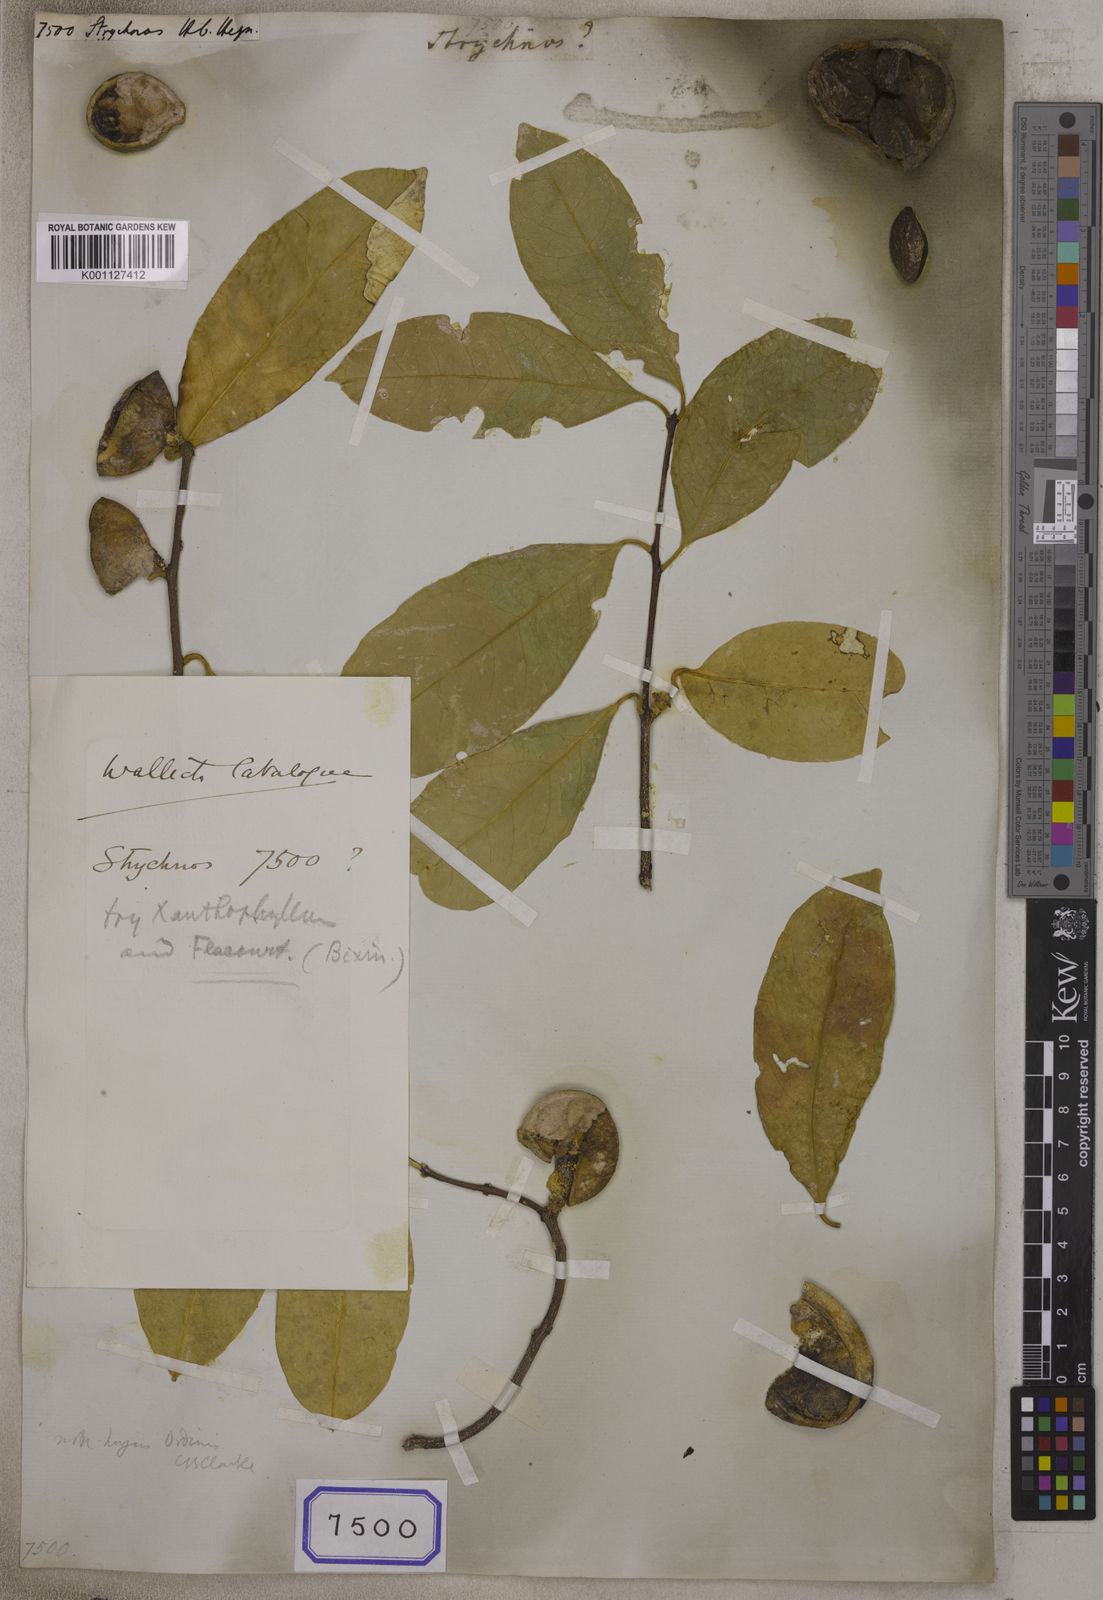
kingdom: Plantae
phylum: Tracheophyta
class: Magnoliopsida
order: Gentianales
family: Loganiaceae
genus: Strychnos
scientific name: Strychnos
